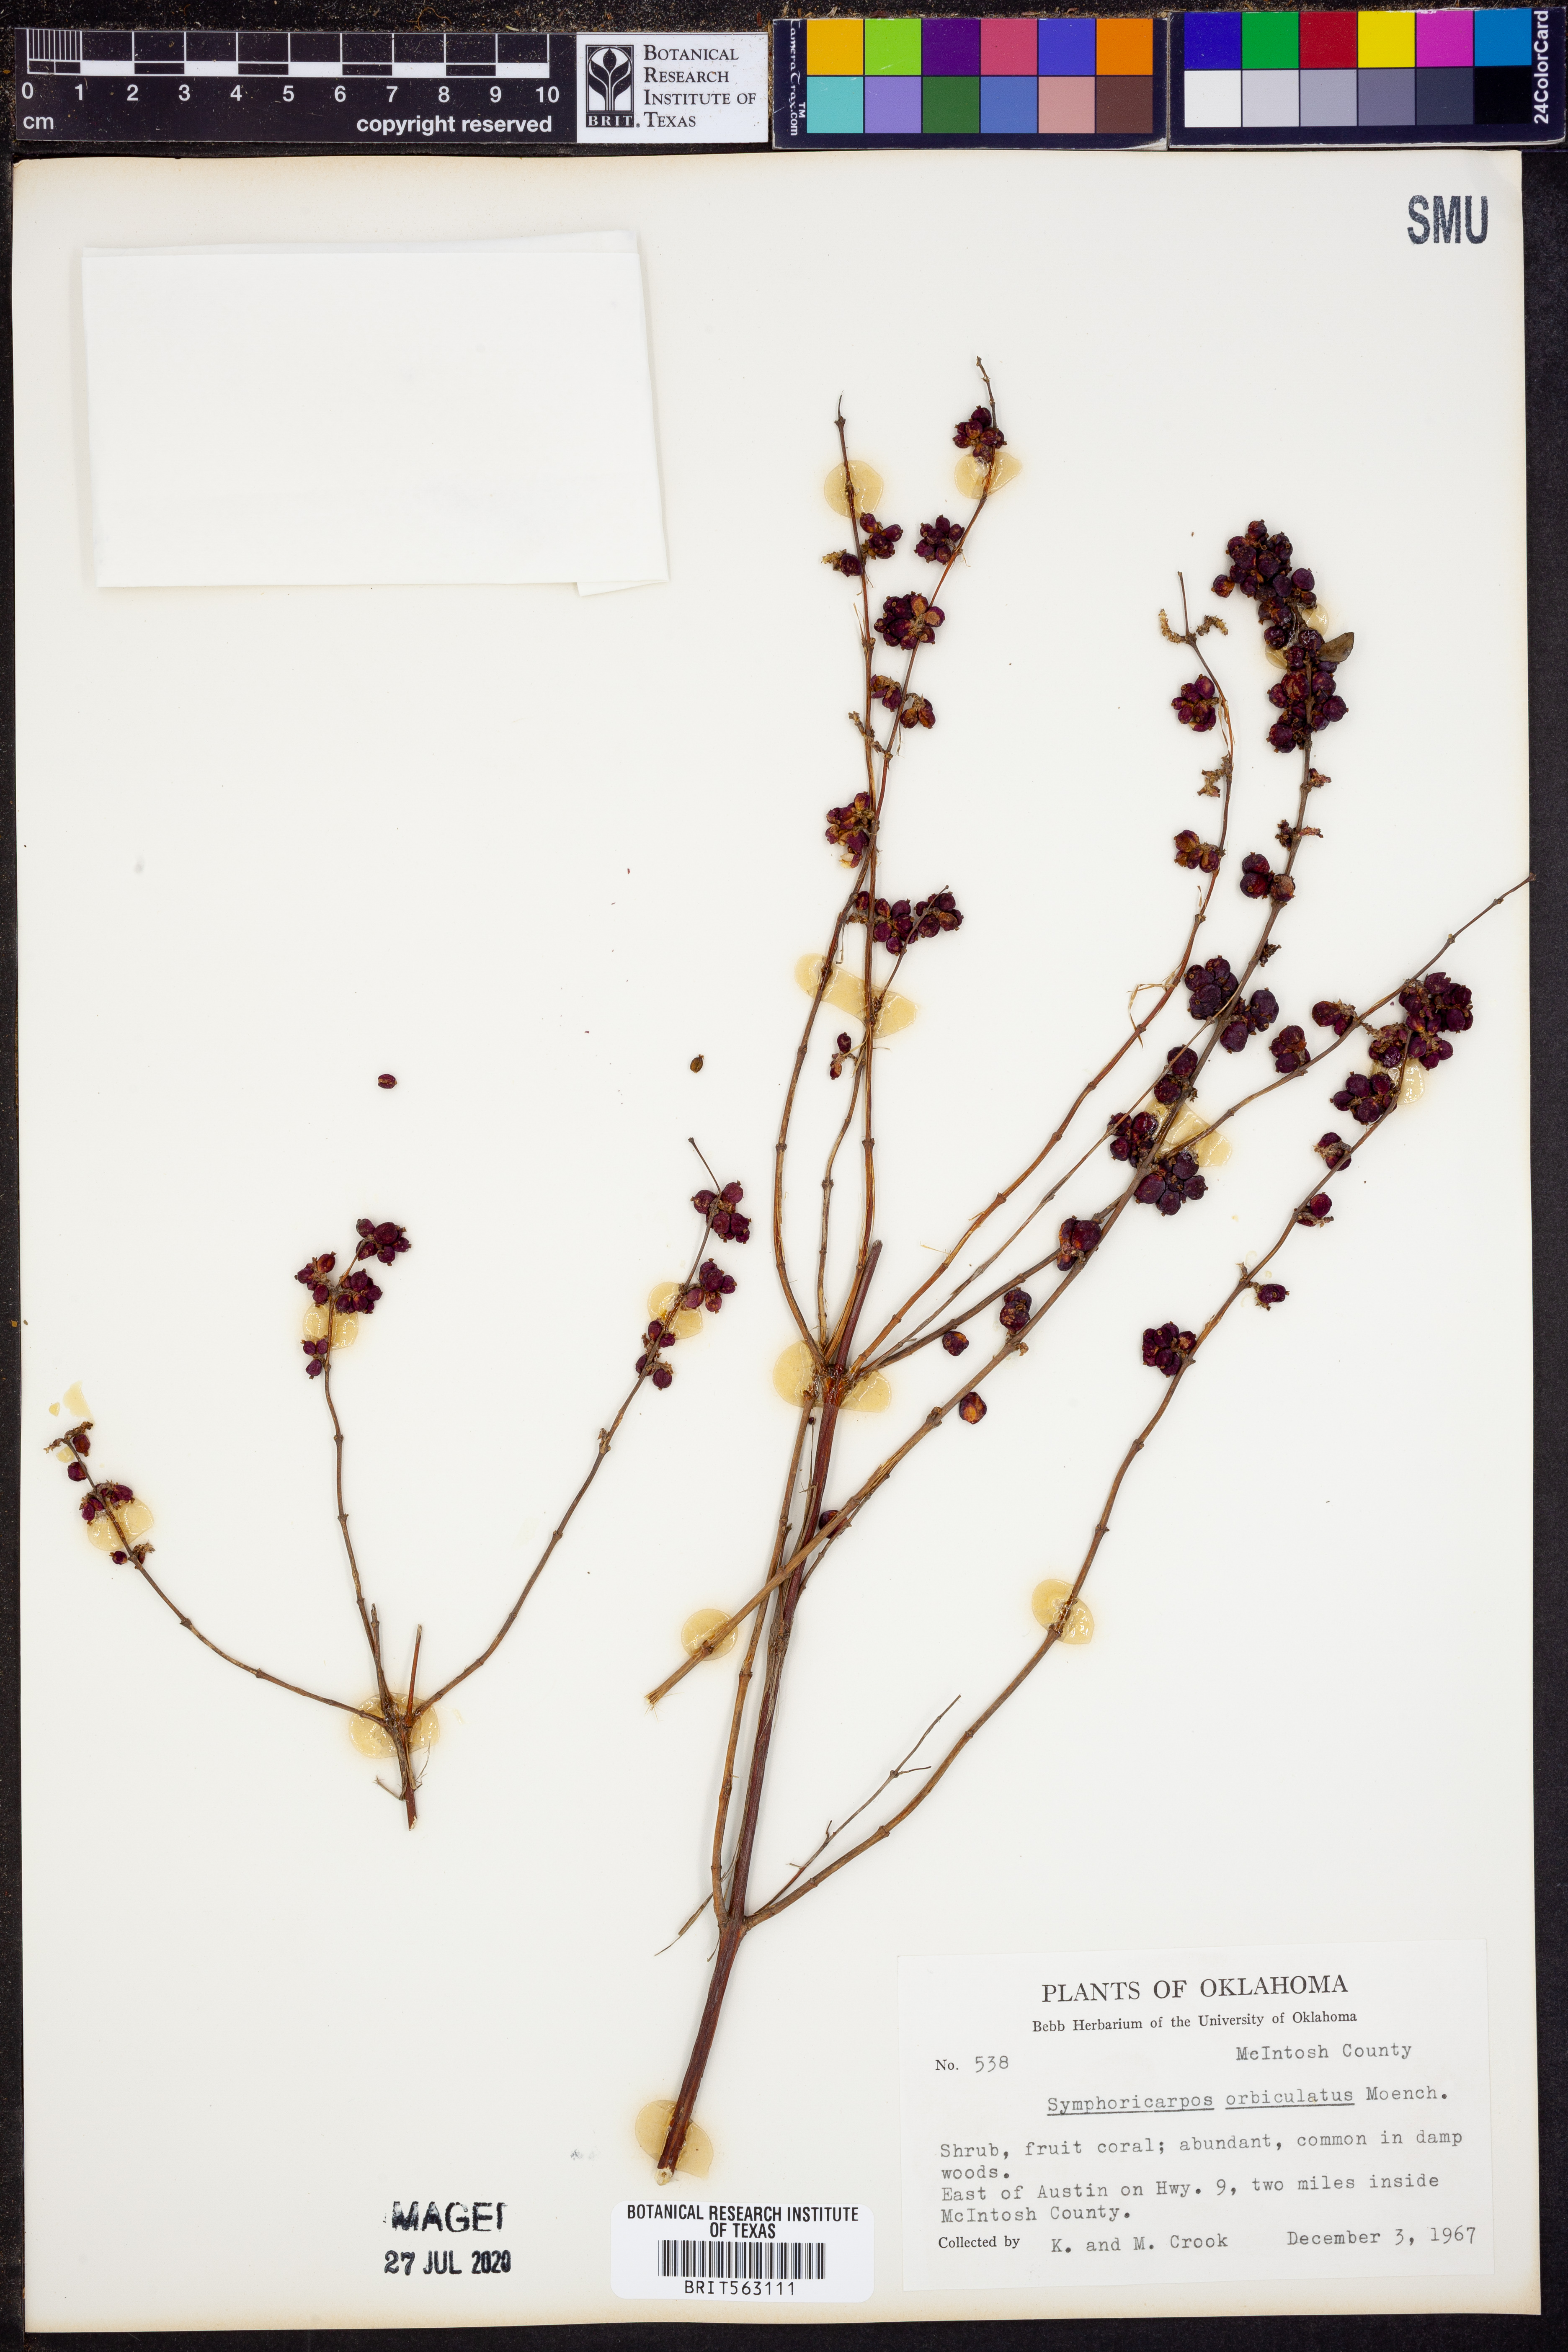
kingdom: Plantae
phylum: Tracheophyta
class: Magnoliopsida
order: Dipsacales
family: Caprifoliaceae
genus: Symphoricarpos
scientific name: Symphoricarpos orbiculatus
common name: Coralberry
